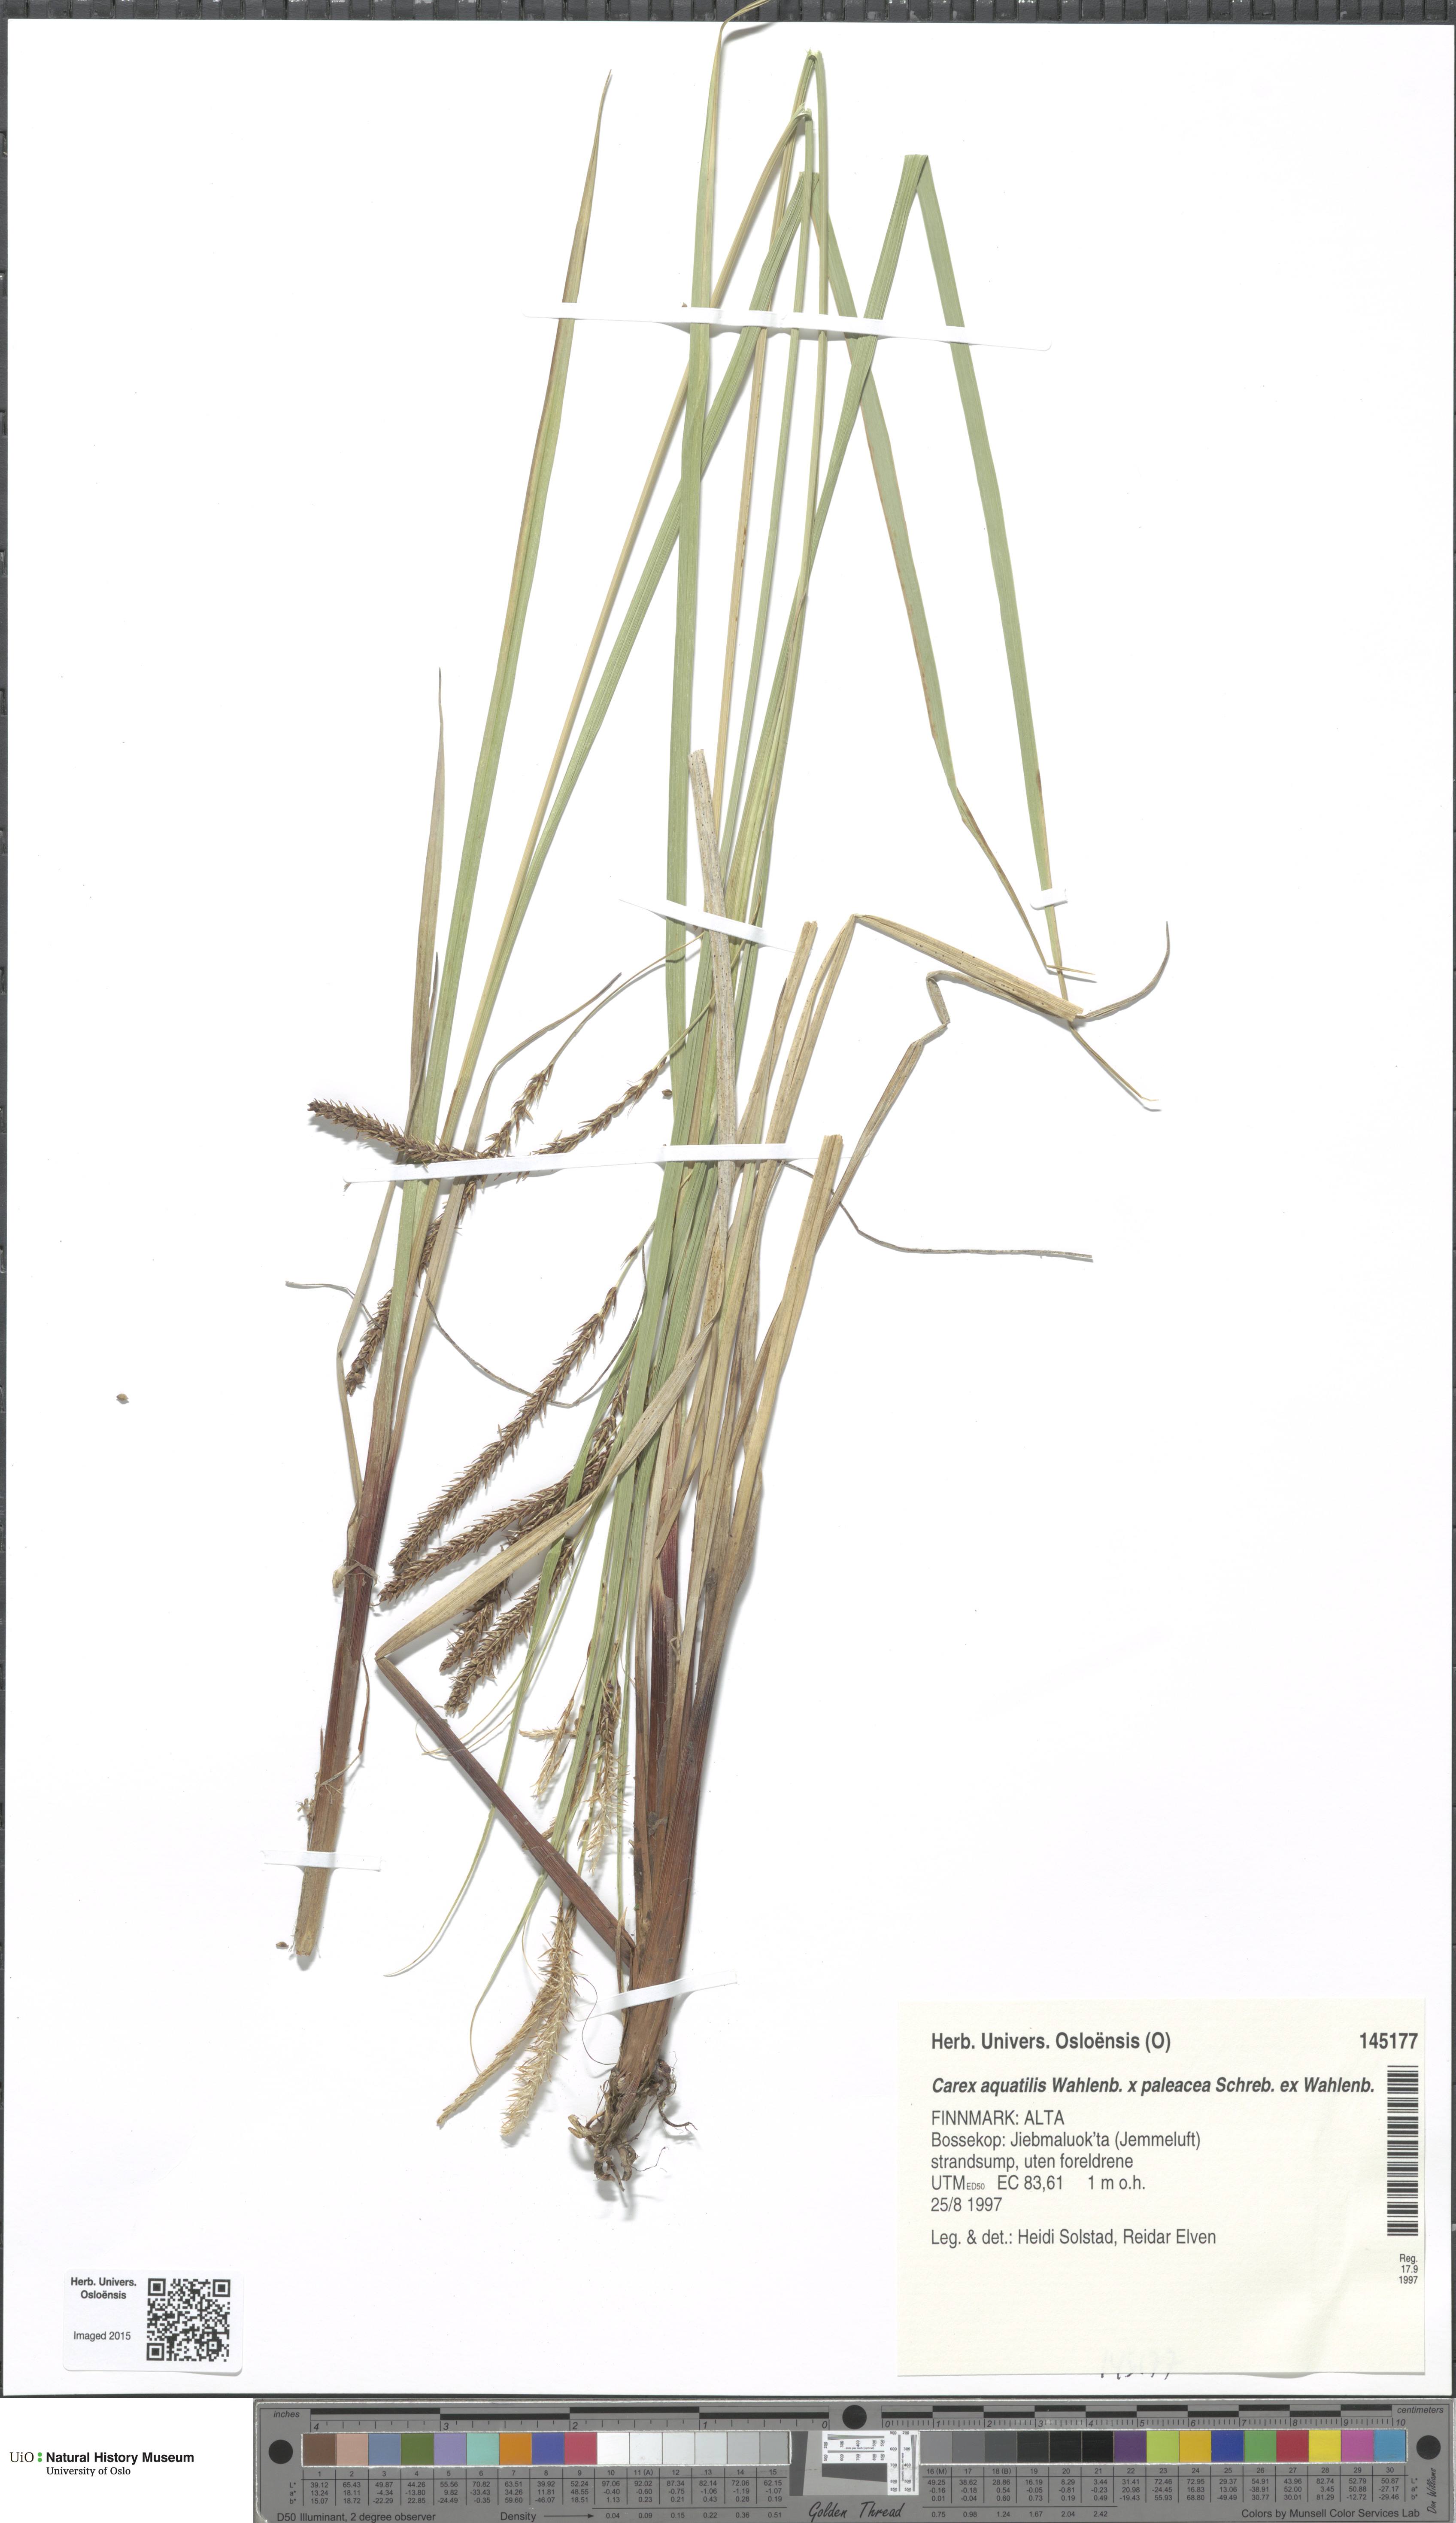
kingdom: Plantae
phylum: Tracheophyta
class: Liliopsida
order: Poales
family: Cyperaceae
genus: Carex
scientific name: Carex
